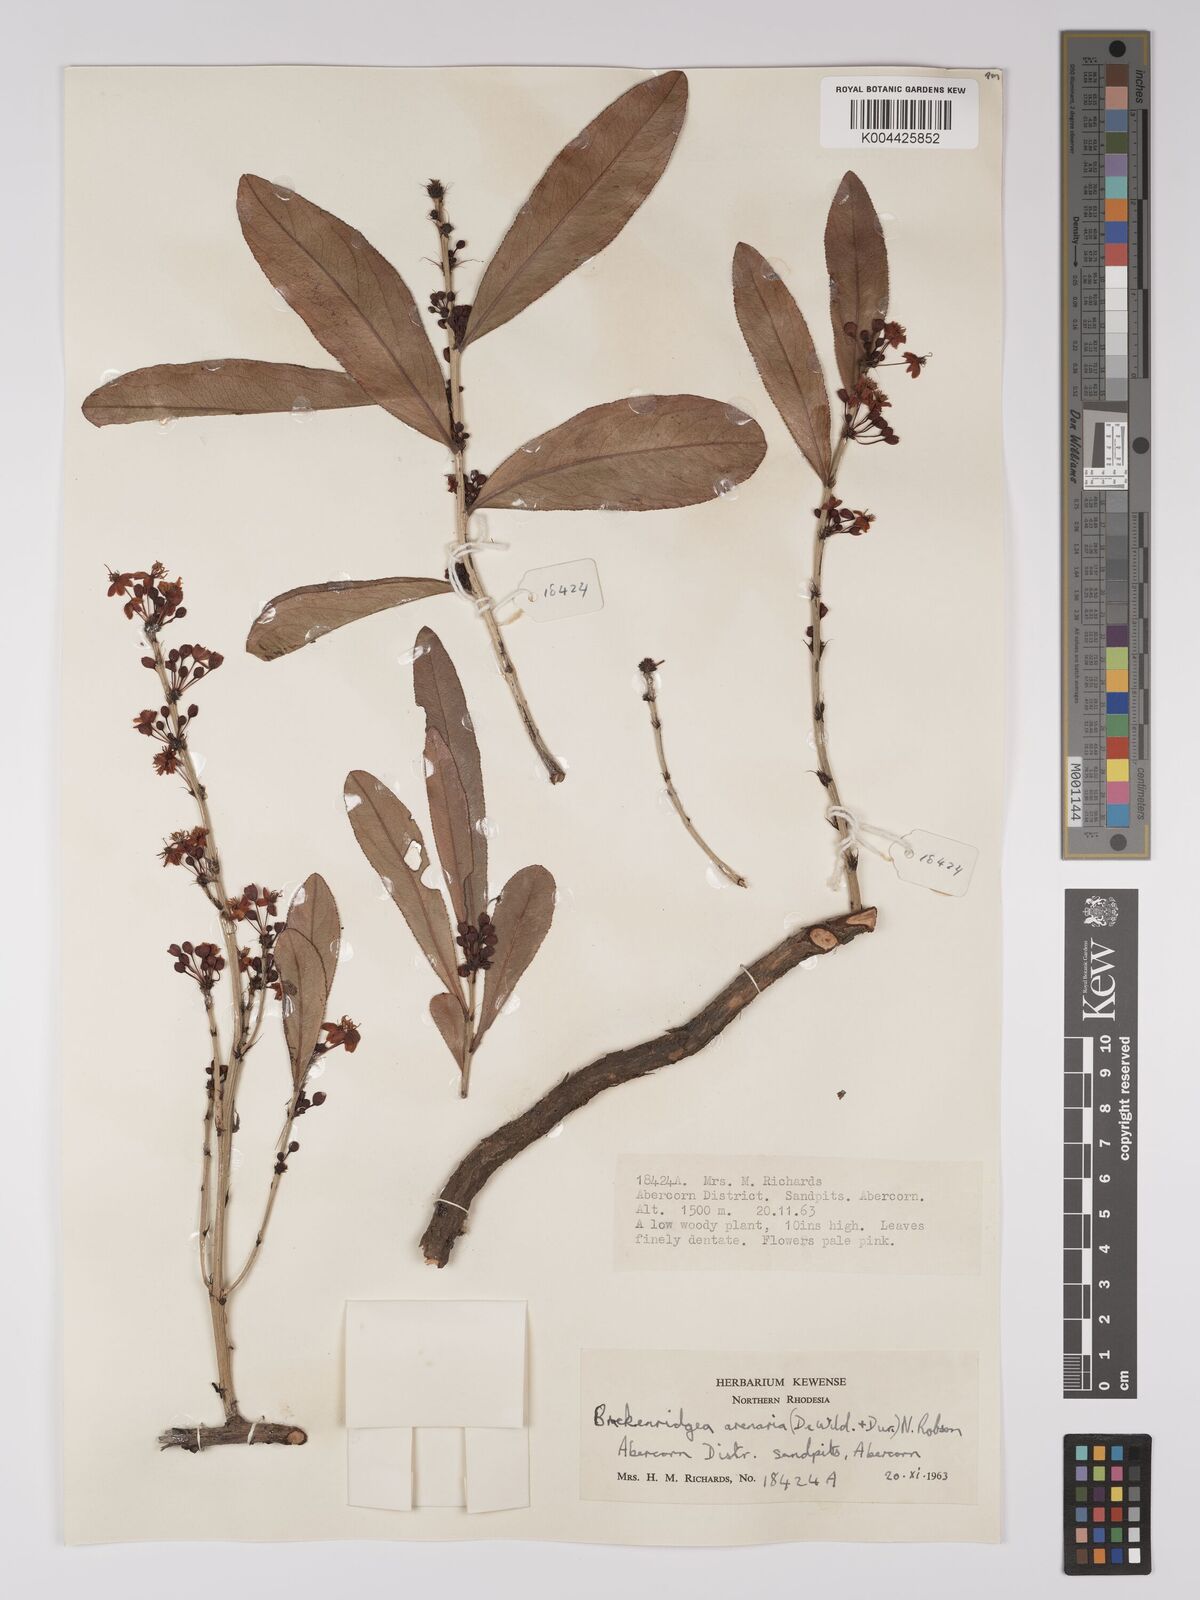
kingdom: Plantae
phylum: Tracheophyta
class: Magnoliopsida
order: Malpighiales
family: Ochnaceae
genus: Ochna
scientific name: Ochna arenaria
